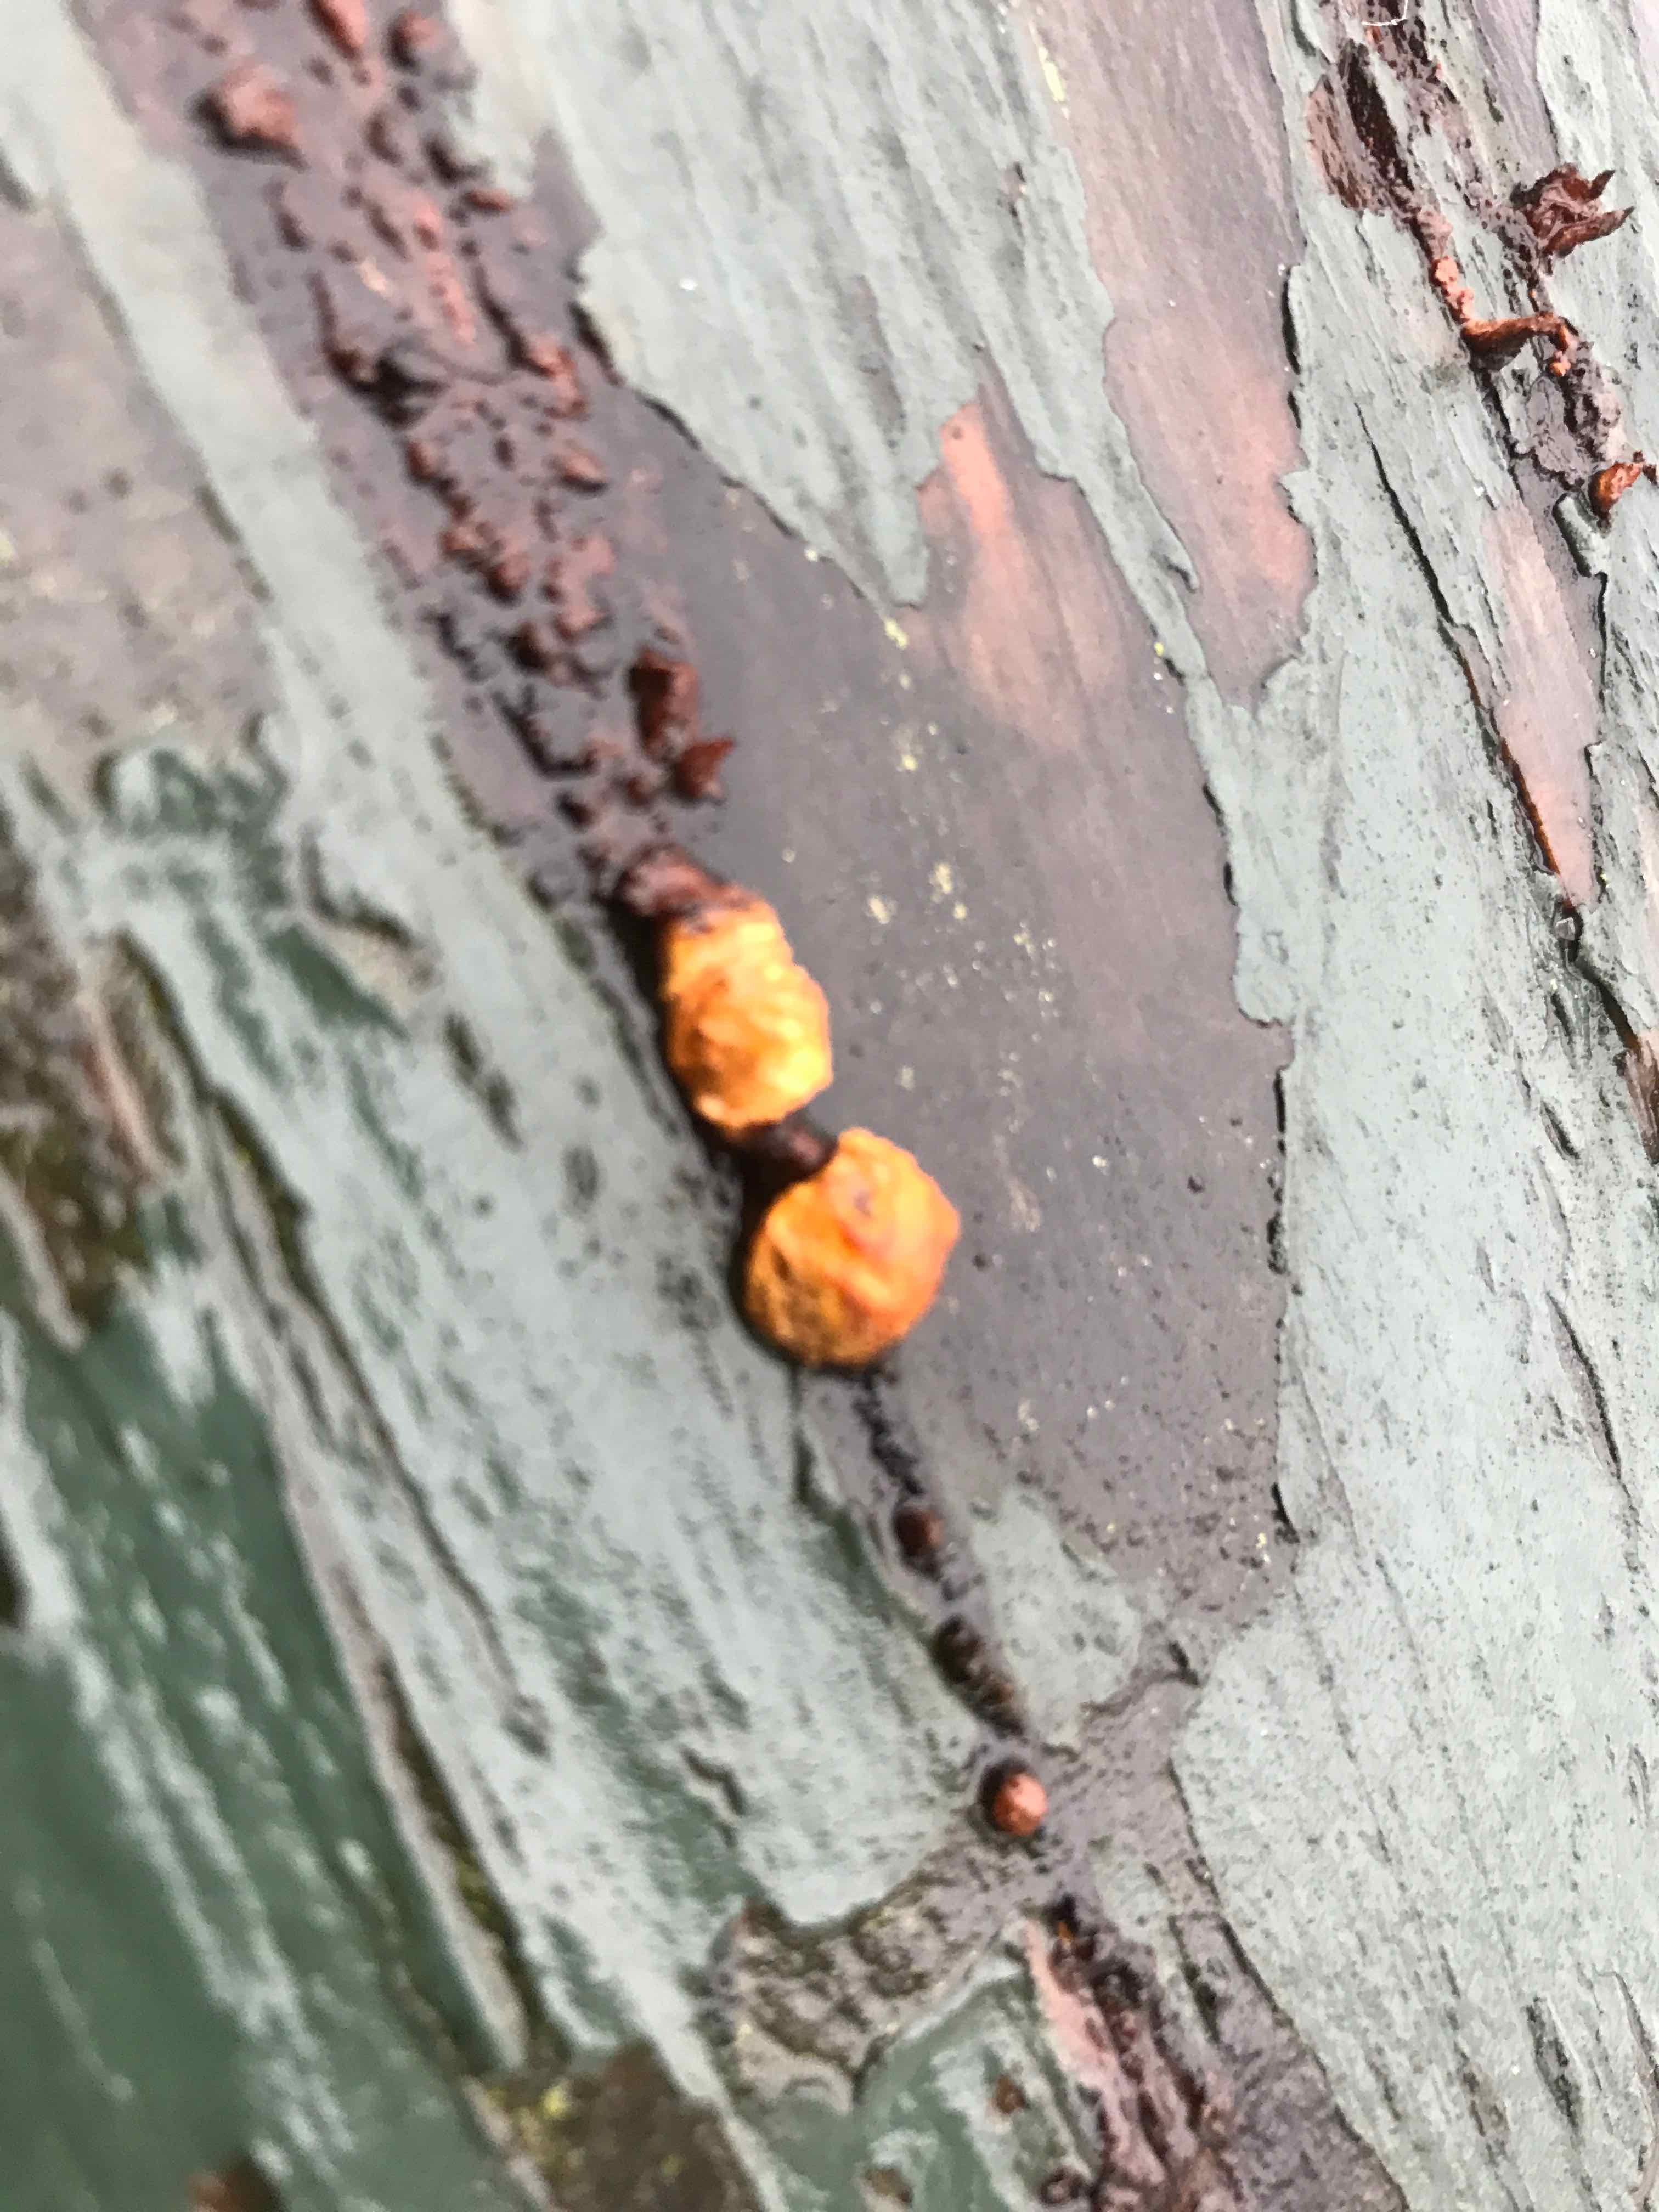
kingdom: Fungi
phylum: Basidiomycota
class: Agaricomycetes
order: Hymenochaetales
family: Hymenochaetaceae
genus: Fuscoporia
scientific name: Fuscoporia ferrea
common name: skorpe-ildporesvamp
